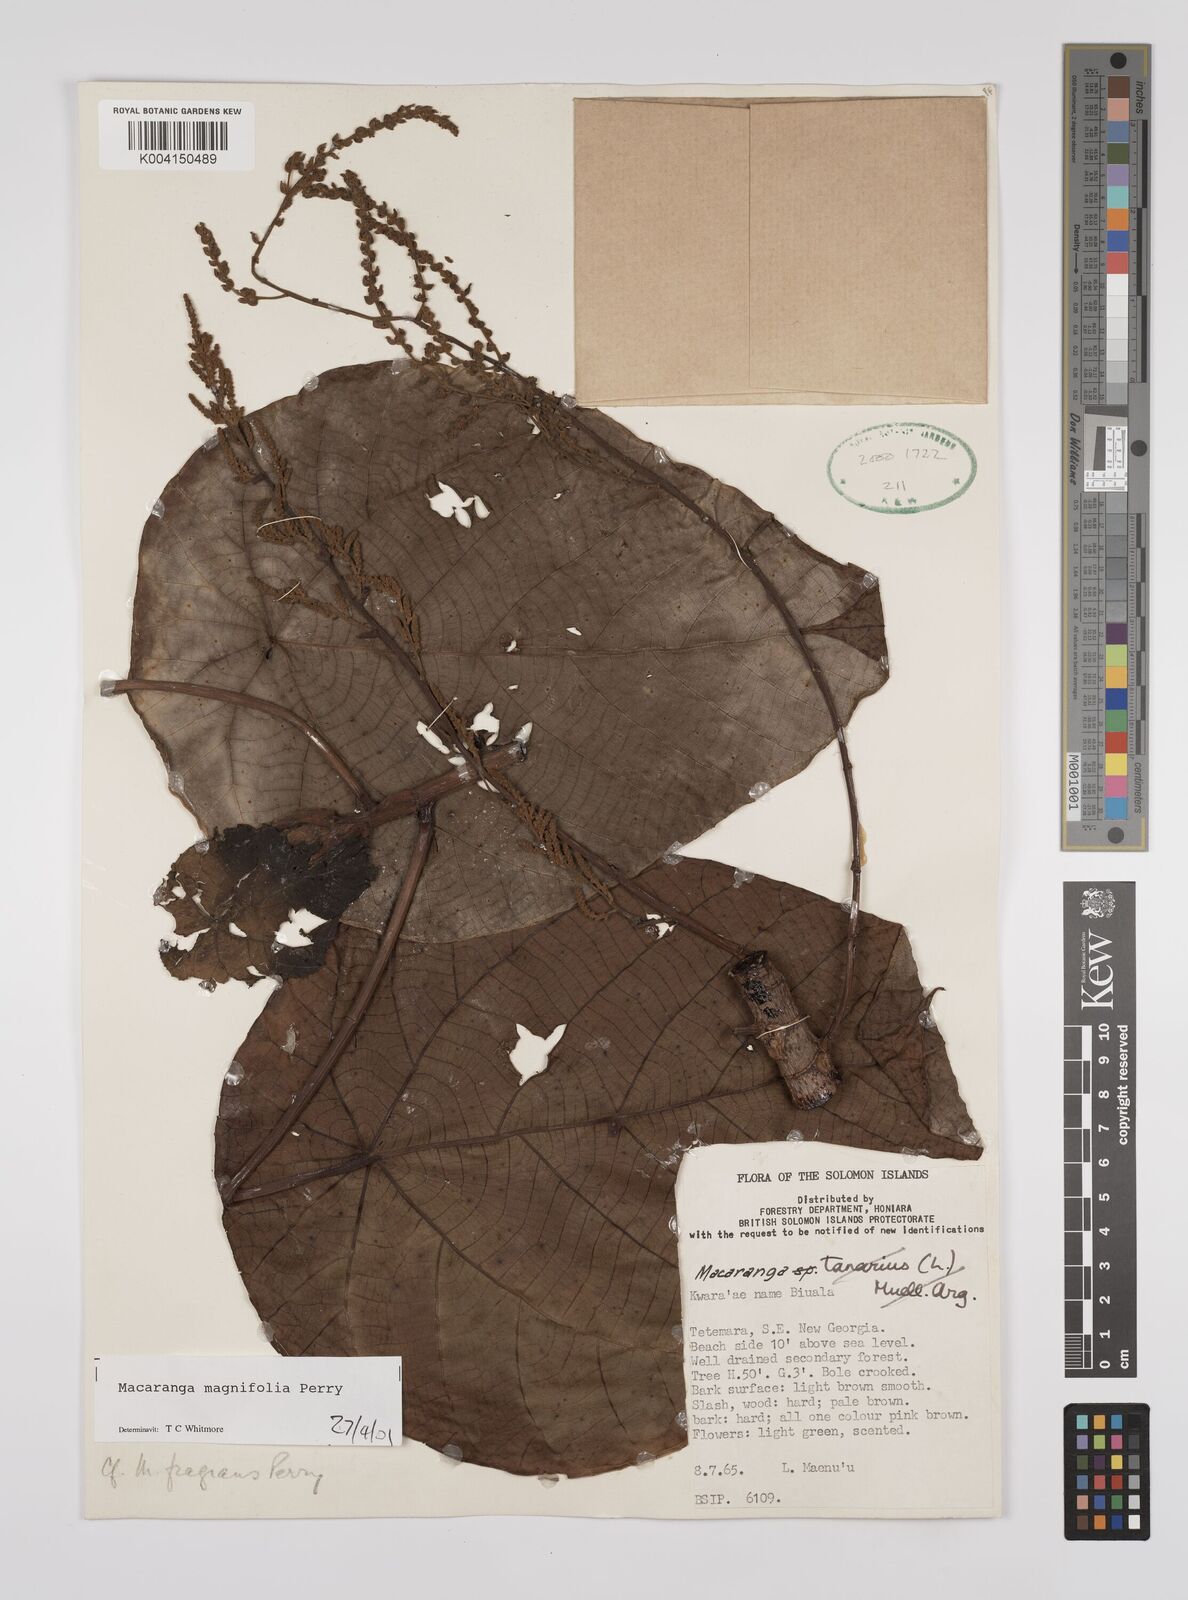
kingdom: Plantae
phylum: Tracheophyta
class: Magnoliopsida
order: Malpighiales
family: Euphorbiaceae
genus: Macaranga
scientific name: Macaranga magnifolia
